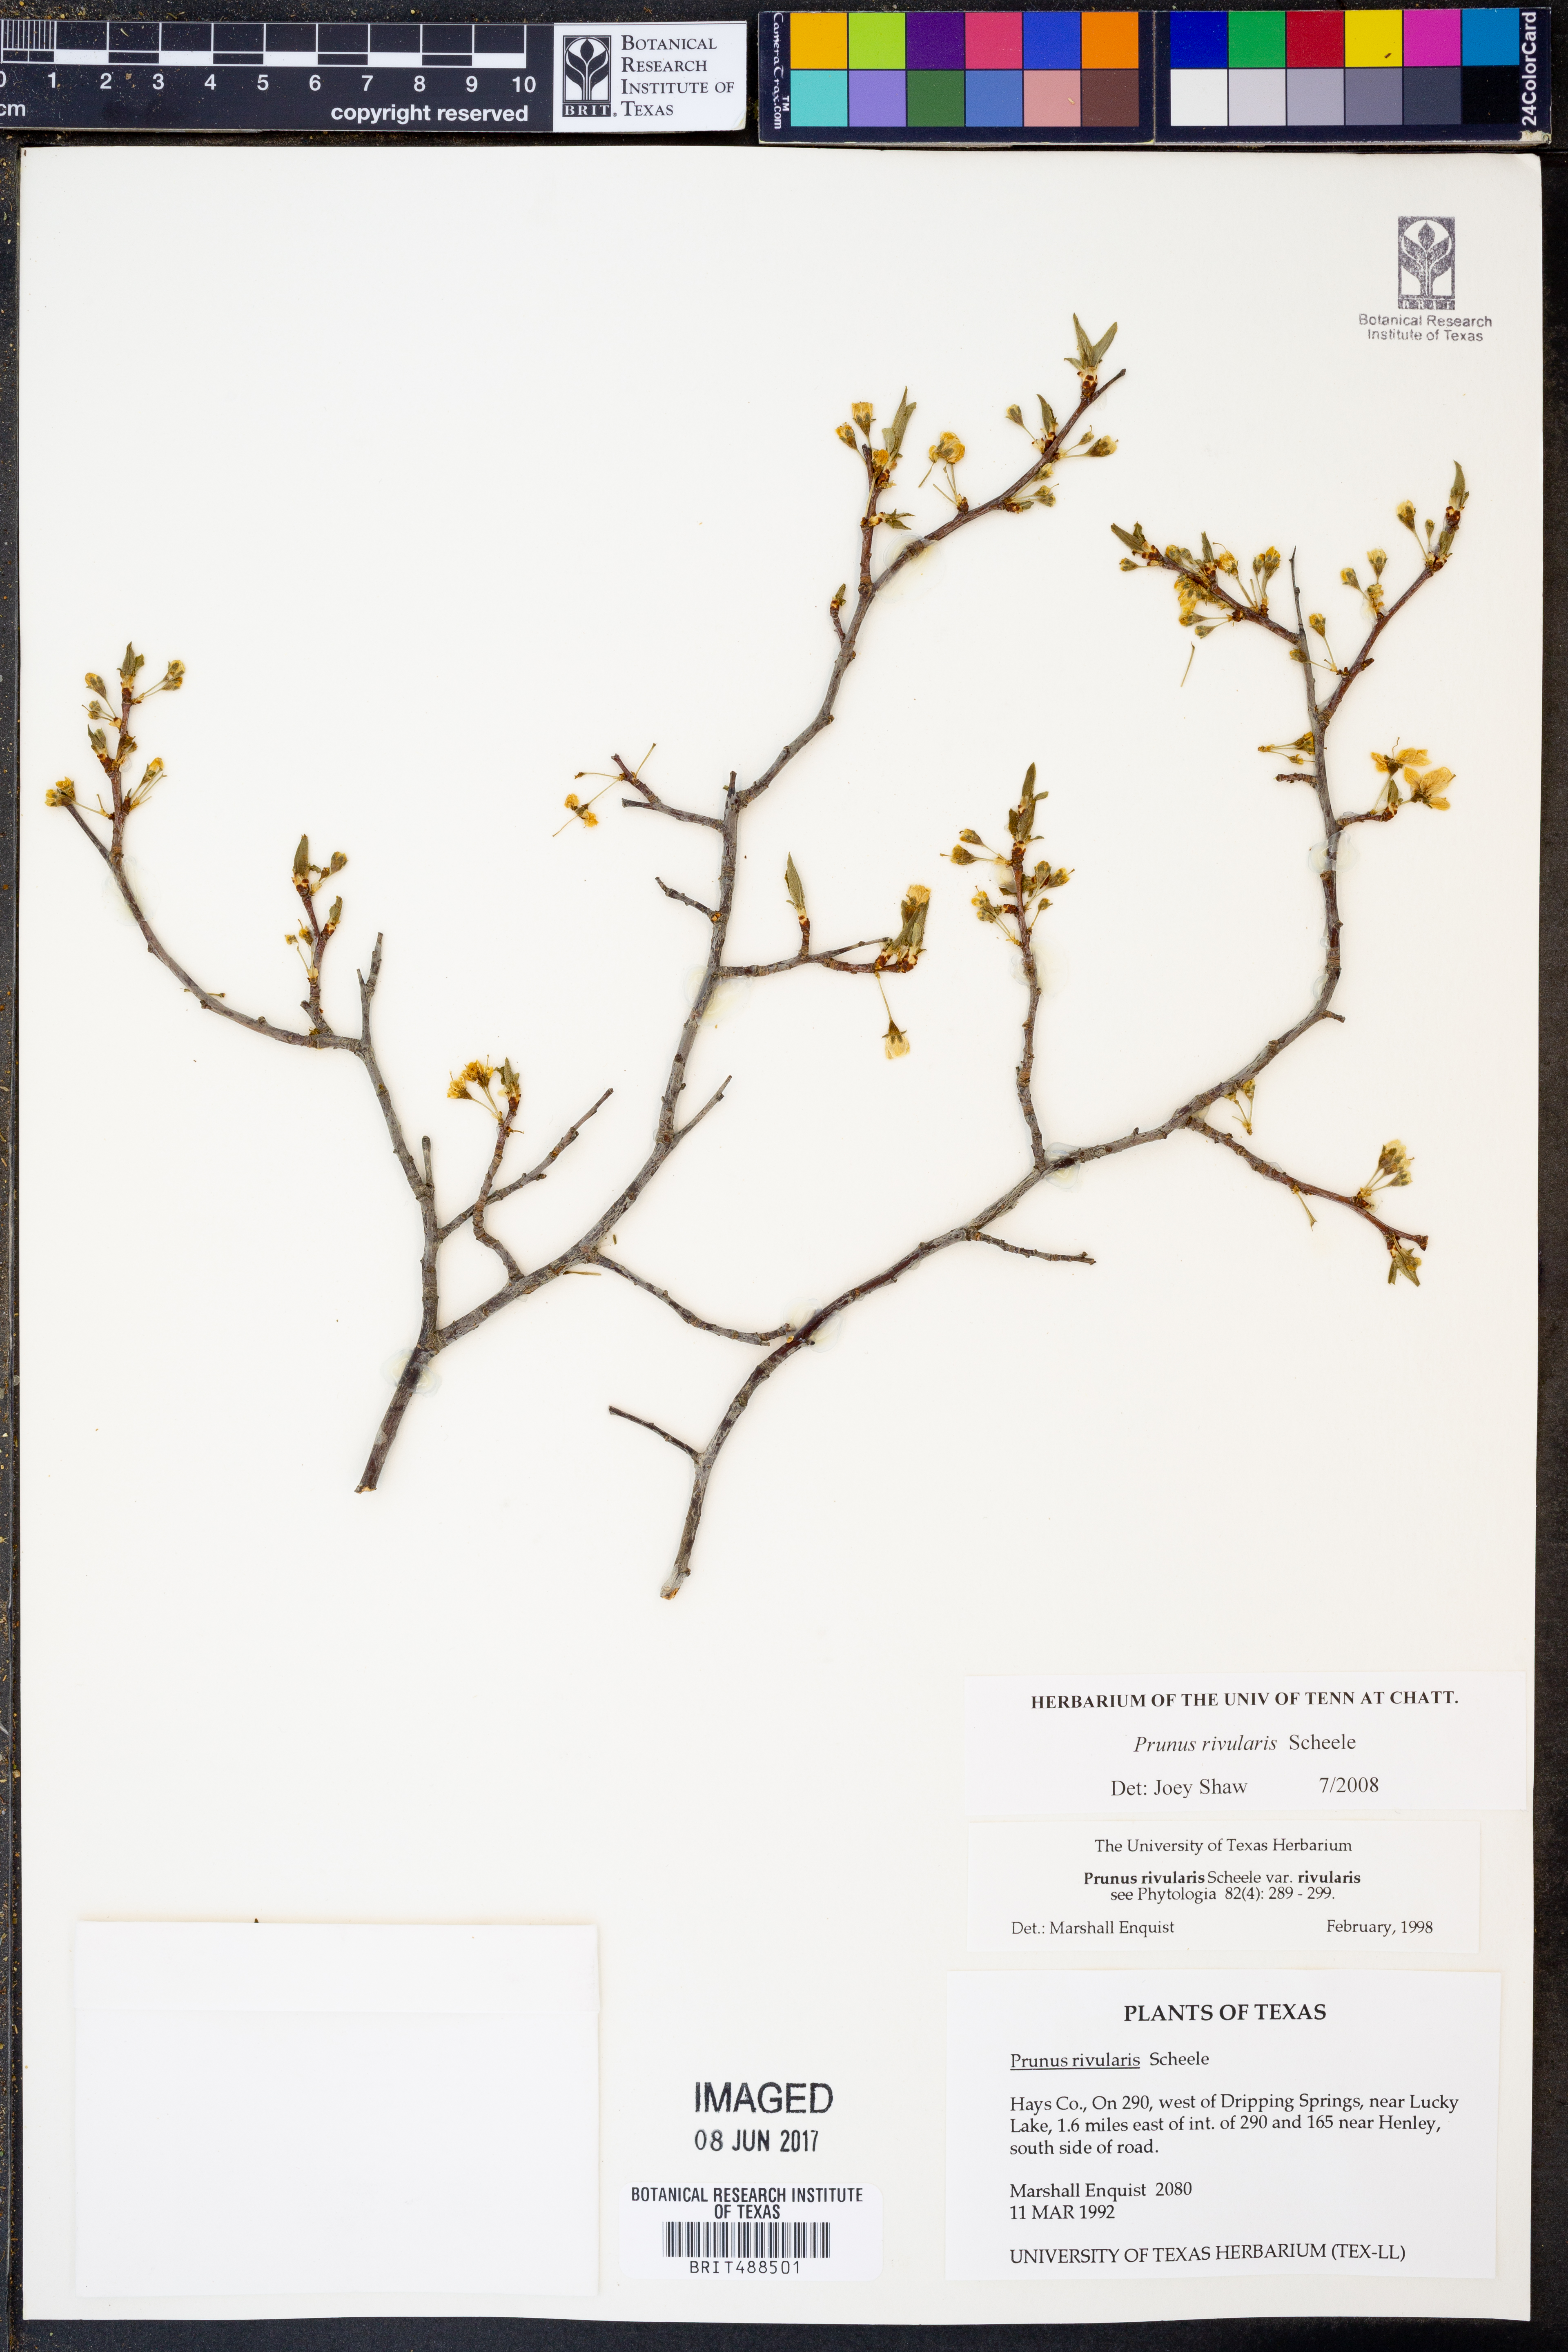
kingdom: Plantae
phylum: Tracheophyta
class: Magnoliopsida
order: Rosales
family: Rosaceae
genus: Prunus
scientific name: Prunus rivularis
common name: Creek plum
